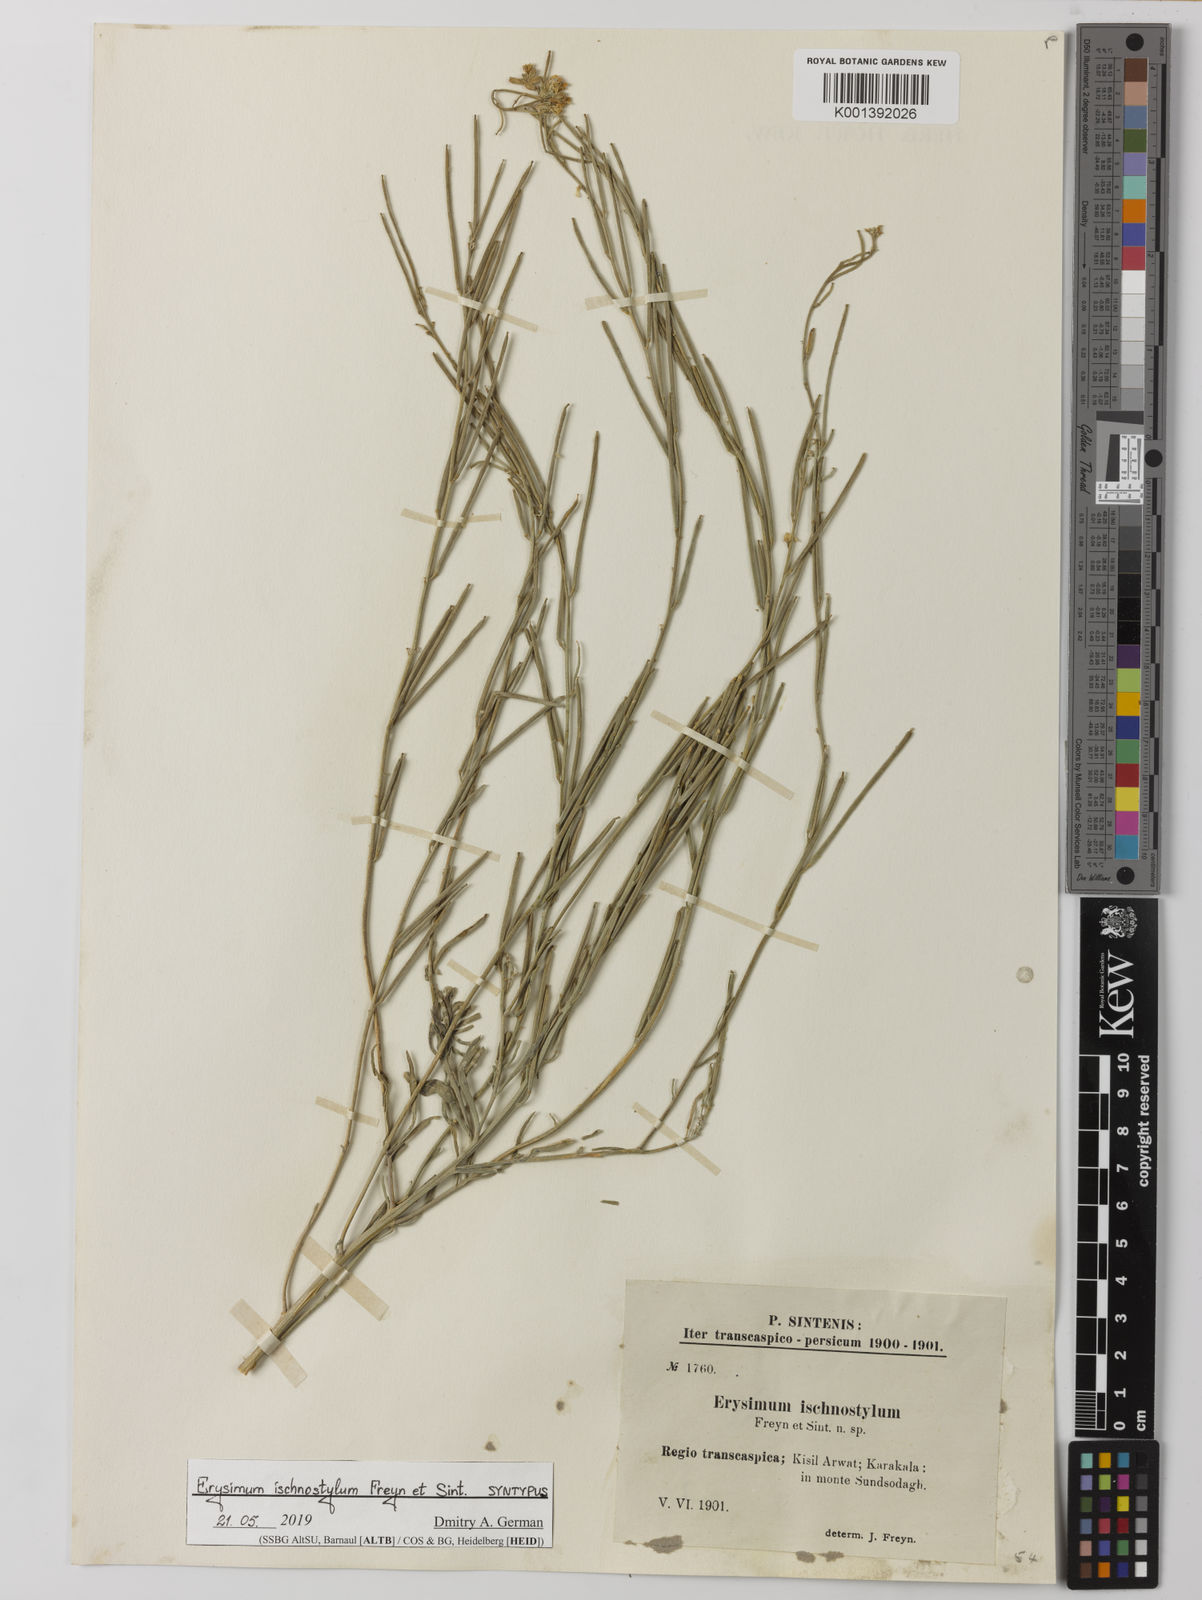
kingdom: Plantae
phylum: Tracheophyta
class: Magnoliopsida
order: Brassicales
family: Brassicaceae
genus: Erysimum
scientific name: Erysimum ischnostylum
